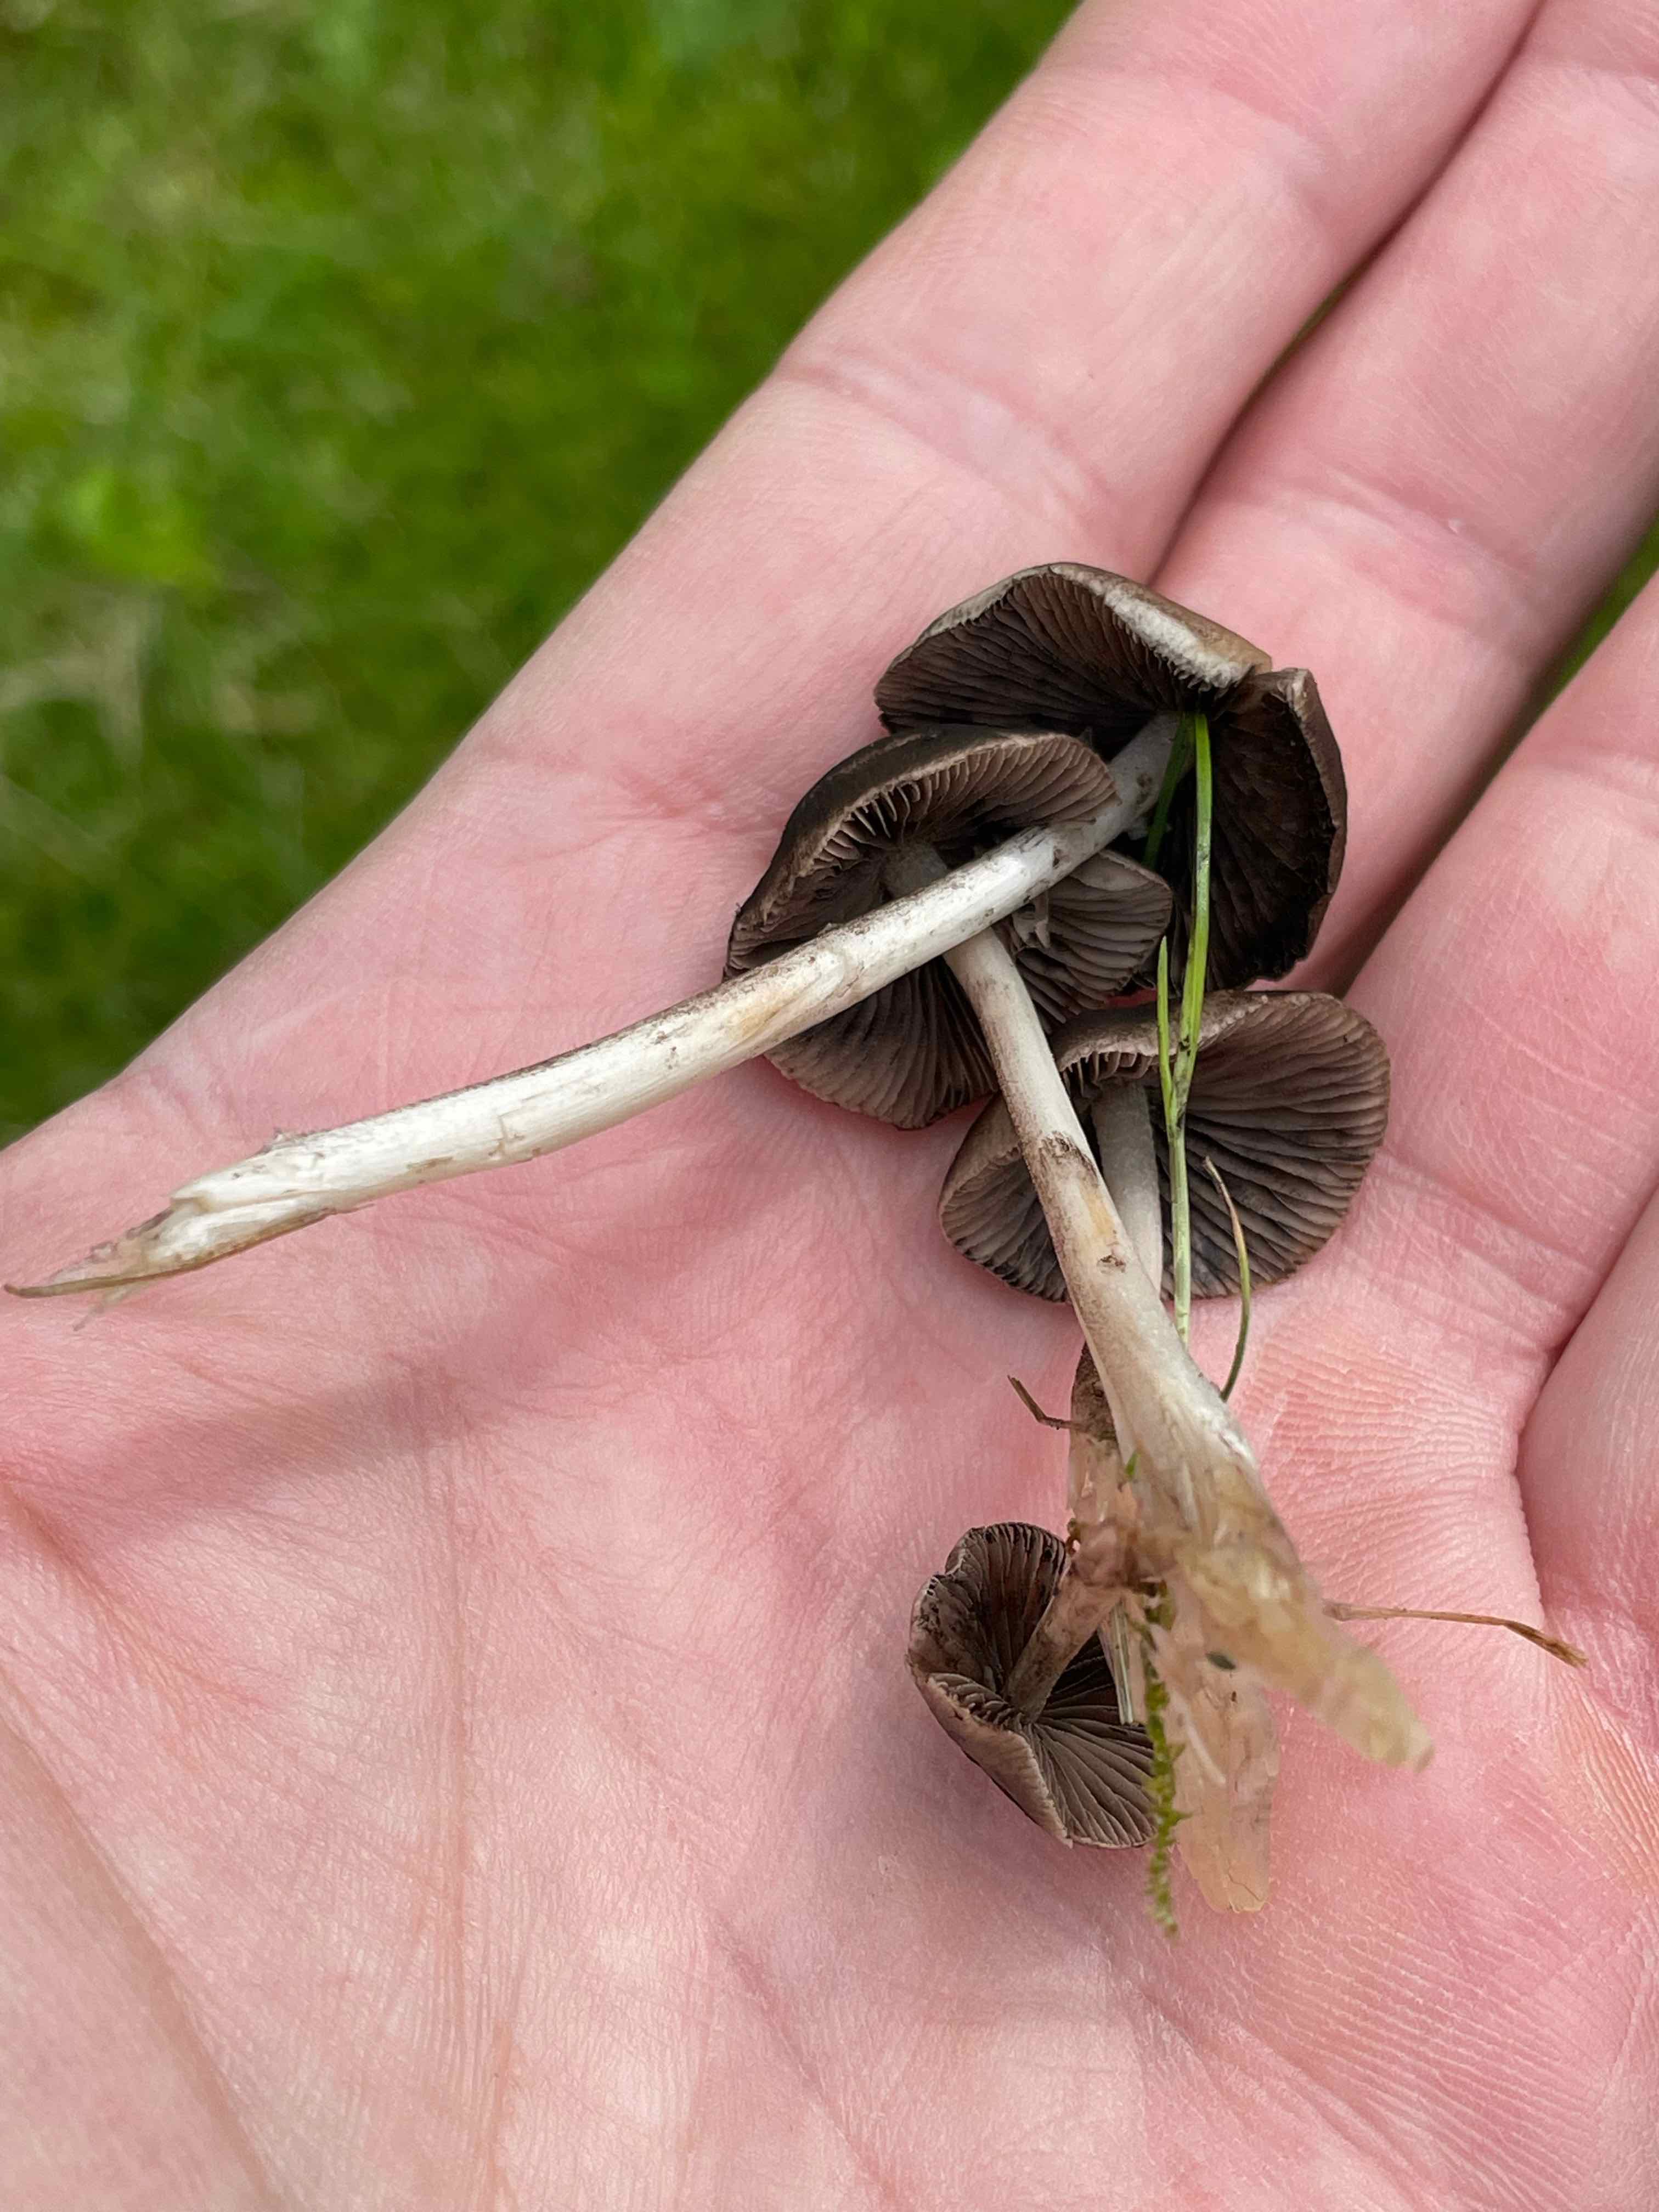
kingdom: Fungi
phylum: Basidiomycota
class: Agaricomycetes
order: Agaricales
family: Psathyrellaceae
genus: Britzelmayria
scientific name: Britzelmayria multipedata
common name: knippe-mørkhat
